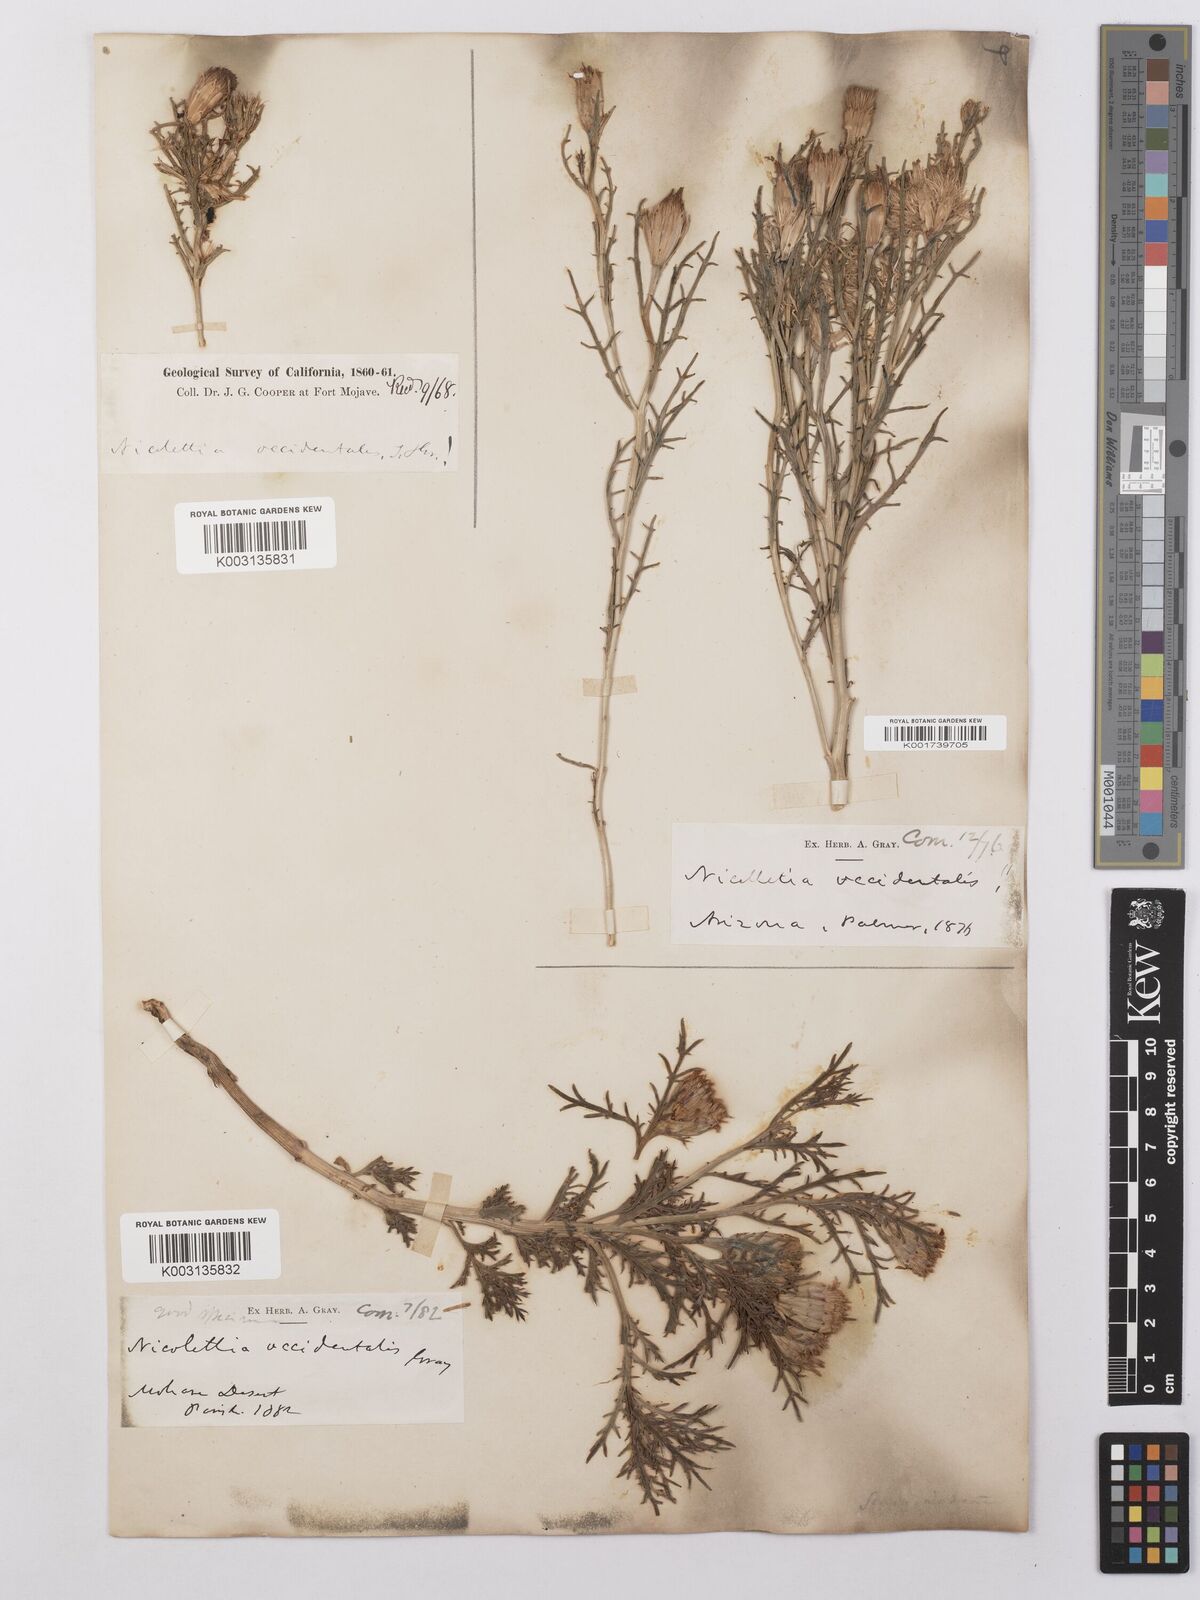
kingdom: Plantae
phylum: Tracheophyta
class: Magnoliopsida
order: Asterales
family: Asteraceae
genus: Nicolletia
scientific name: Nicolletia occidentalis
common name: Hole-in-the-sand-plant
